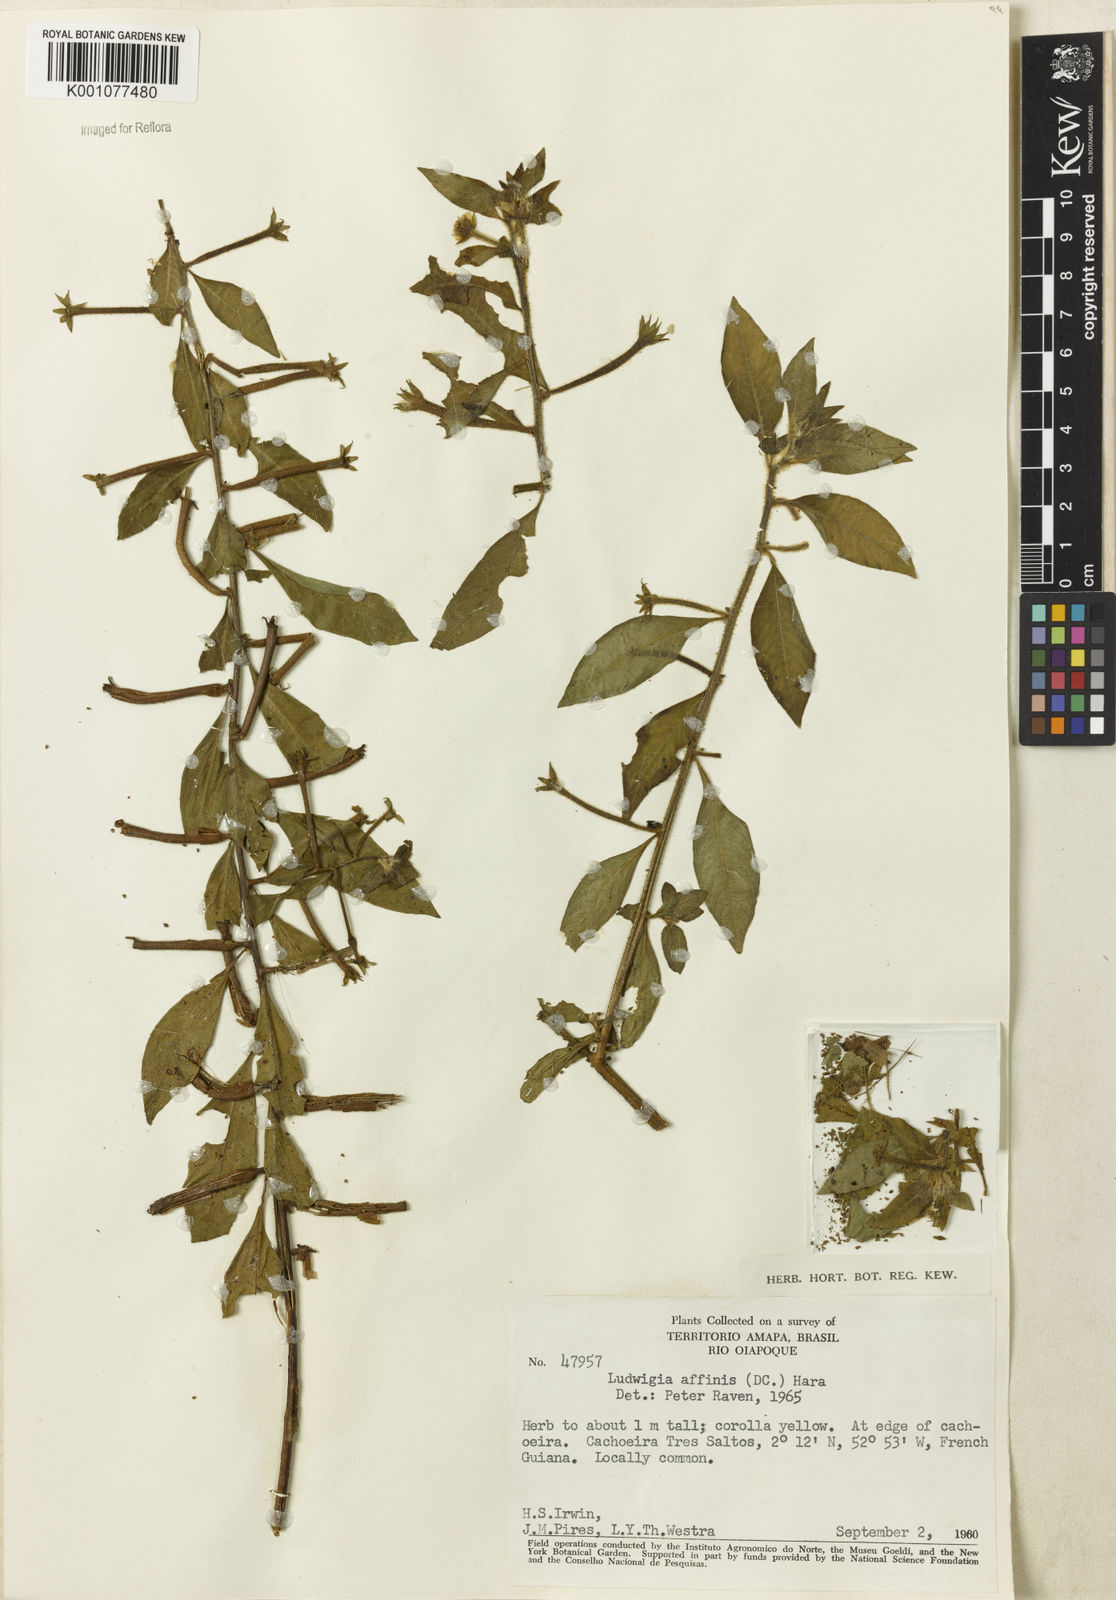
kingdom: Plantae
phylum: Tracheophyta
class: Magnoliopsida
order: Myrtales
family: Onagraceae
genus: Ludwigia
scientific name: Ludwigia affinis
